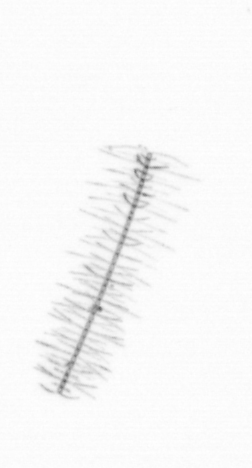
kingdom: Chromista
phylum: Ochrophyta
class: Bacillariophyceae
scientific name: Bacillariophyceae
